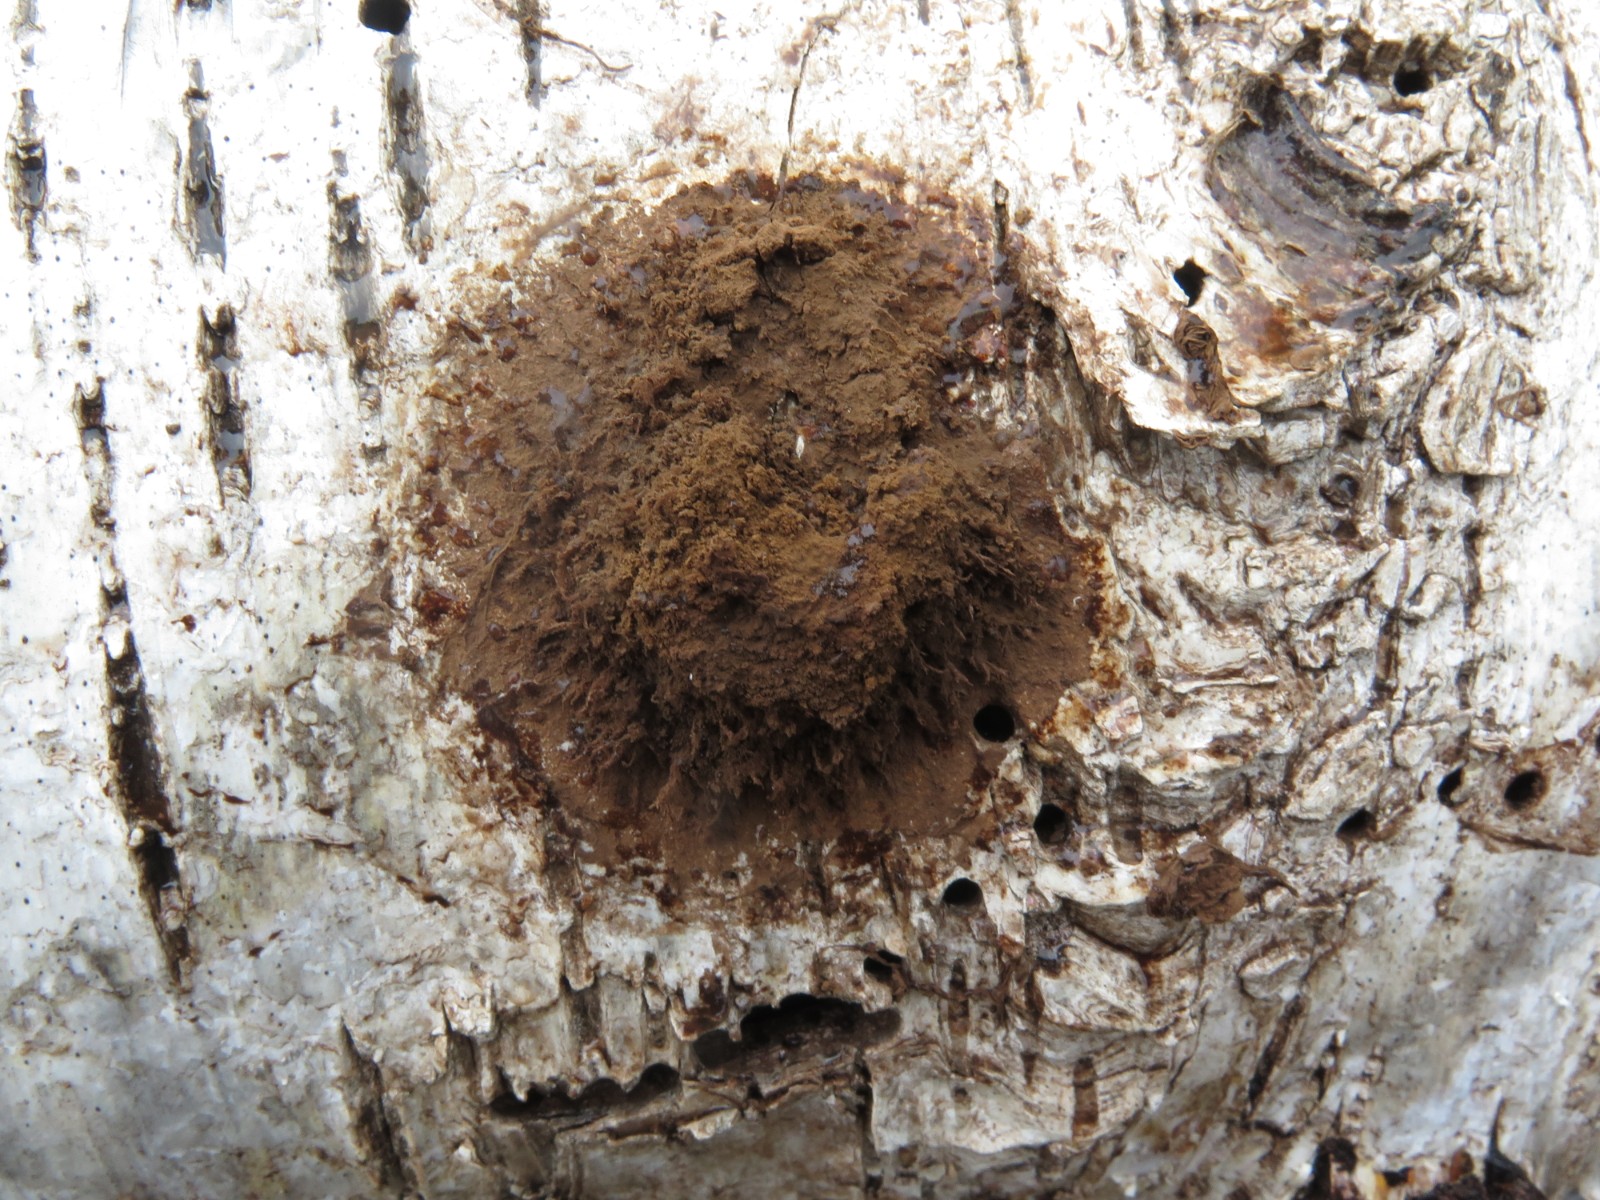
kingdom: Protozoa
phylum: Mycetozoa
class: Myxomycetes
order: Cribrariales
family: Tubiferaceae
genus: Reticularia
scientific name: Reticularia lycoperdon
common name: skinnende støvpude
